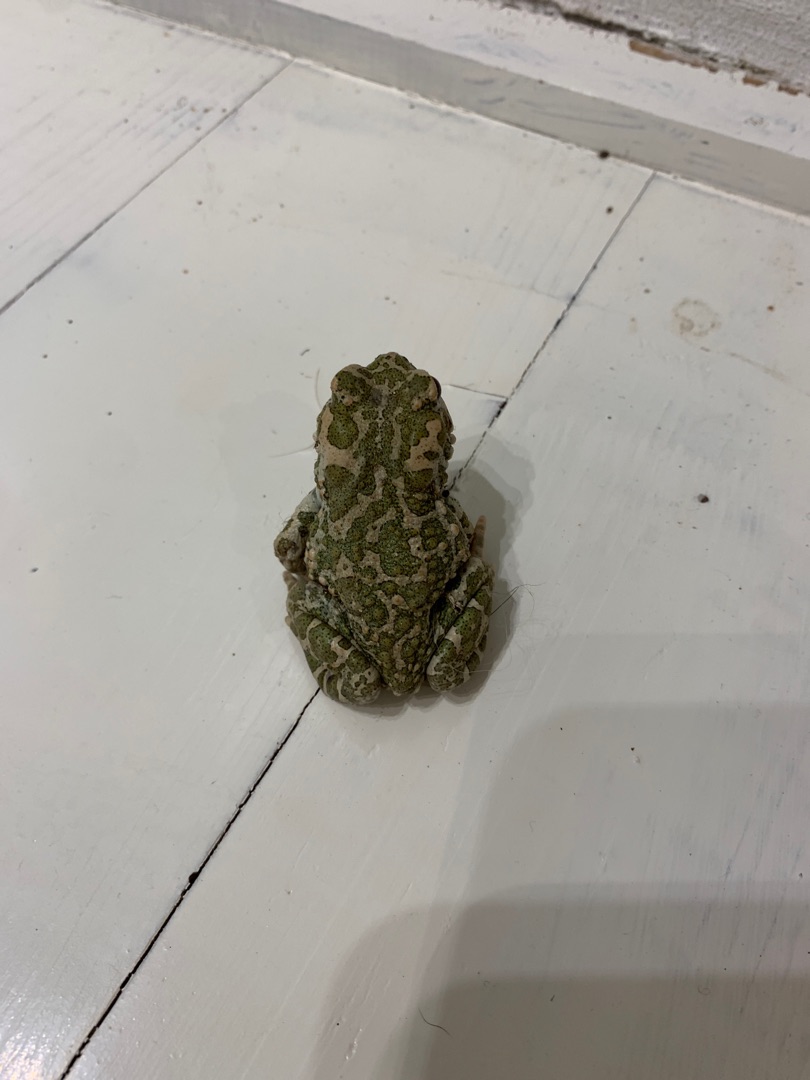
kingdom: Animalia
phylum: Chordata
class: Amphibia
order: Anura
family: Bufonidae
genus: Bufotes
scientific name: Bufotes viridis
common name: Grønbroget tudse
